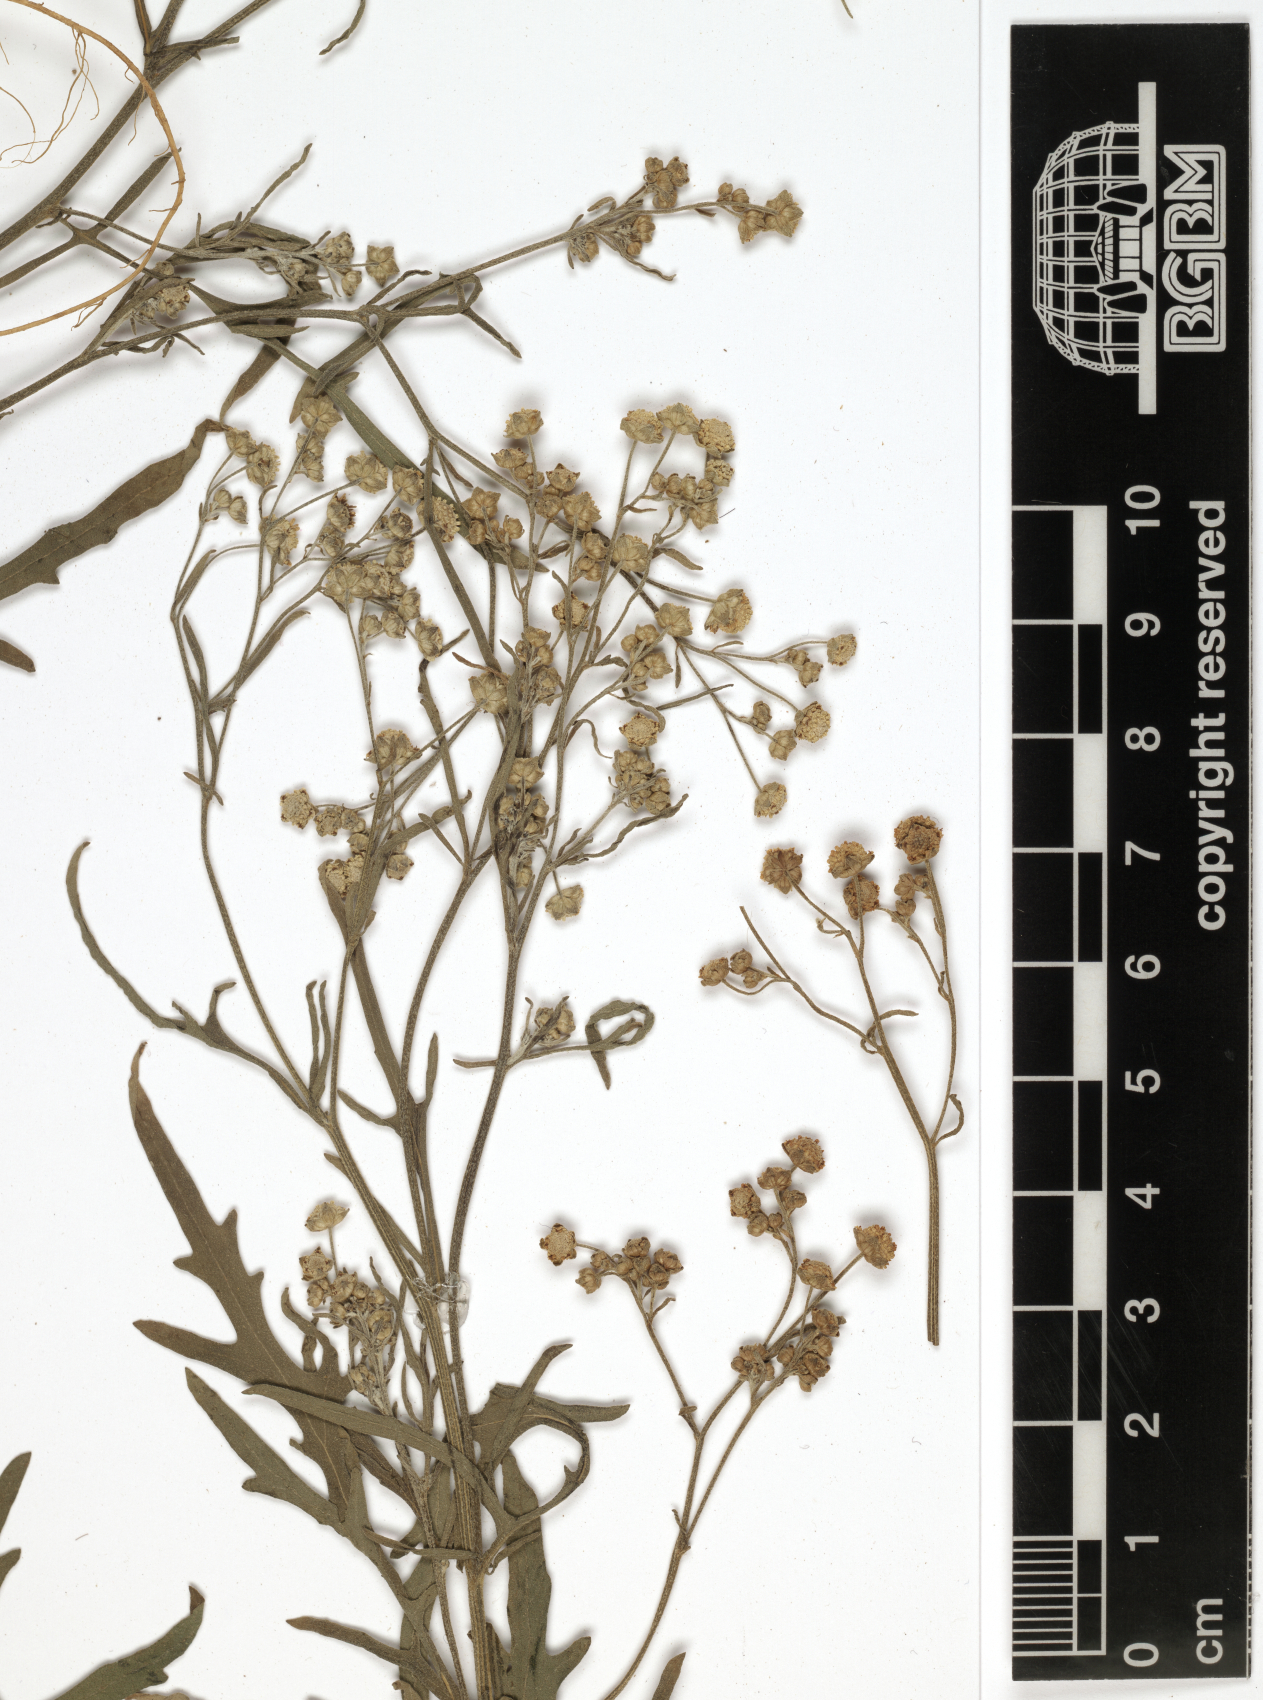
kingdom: Plantae
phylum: Tracheophyta
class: Magnoliopsida
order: Asterales
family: Asteraceae
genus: Parthenium
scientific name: Parthenium hysterophorus
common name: Santa maria feverfew
